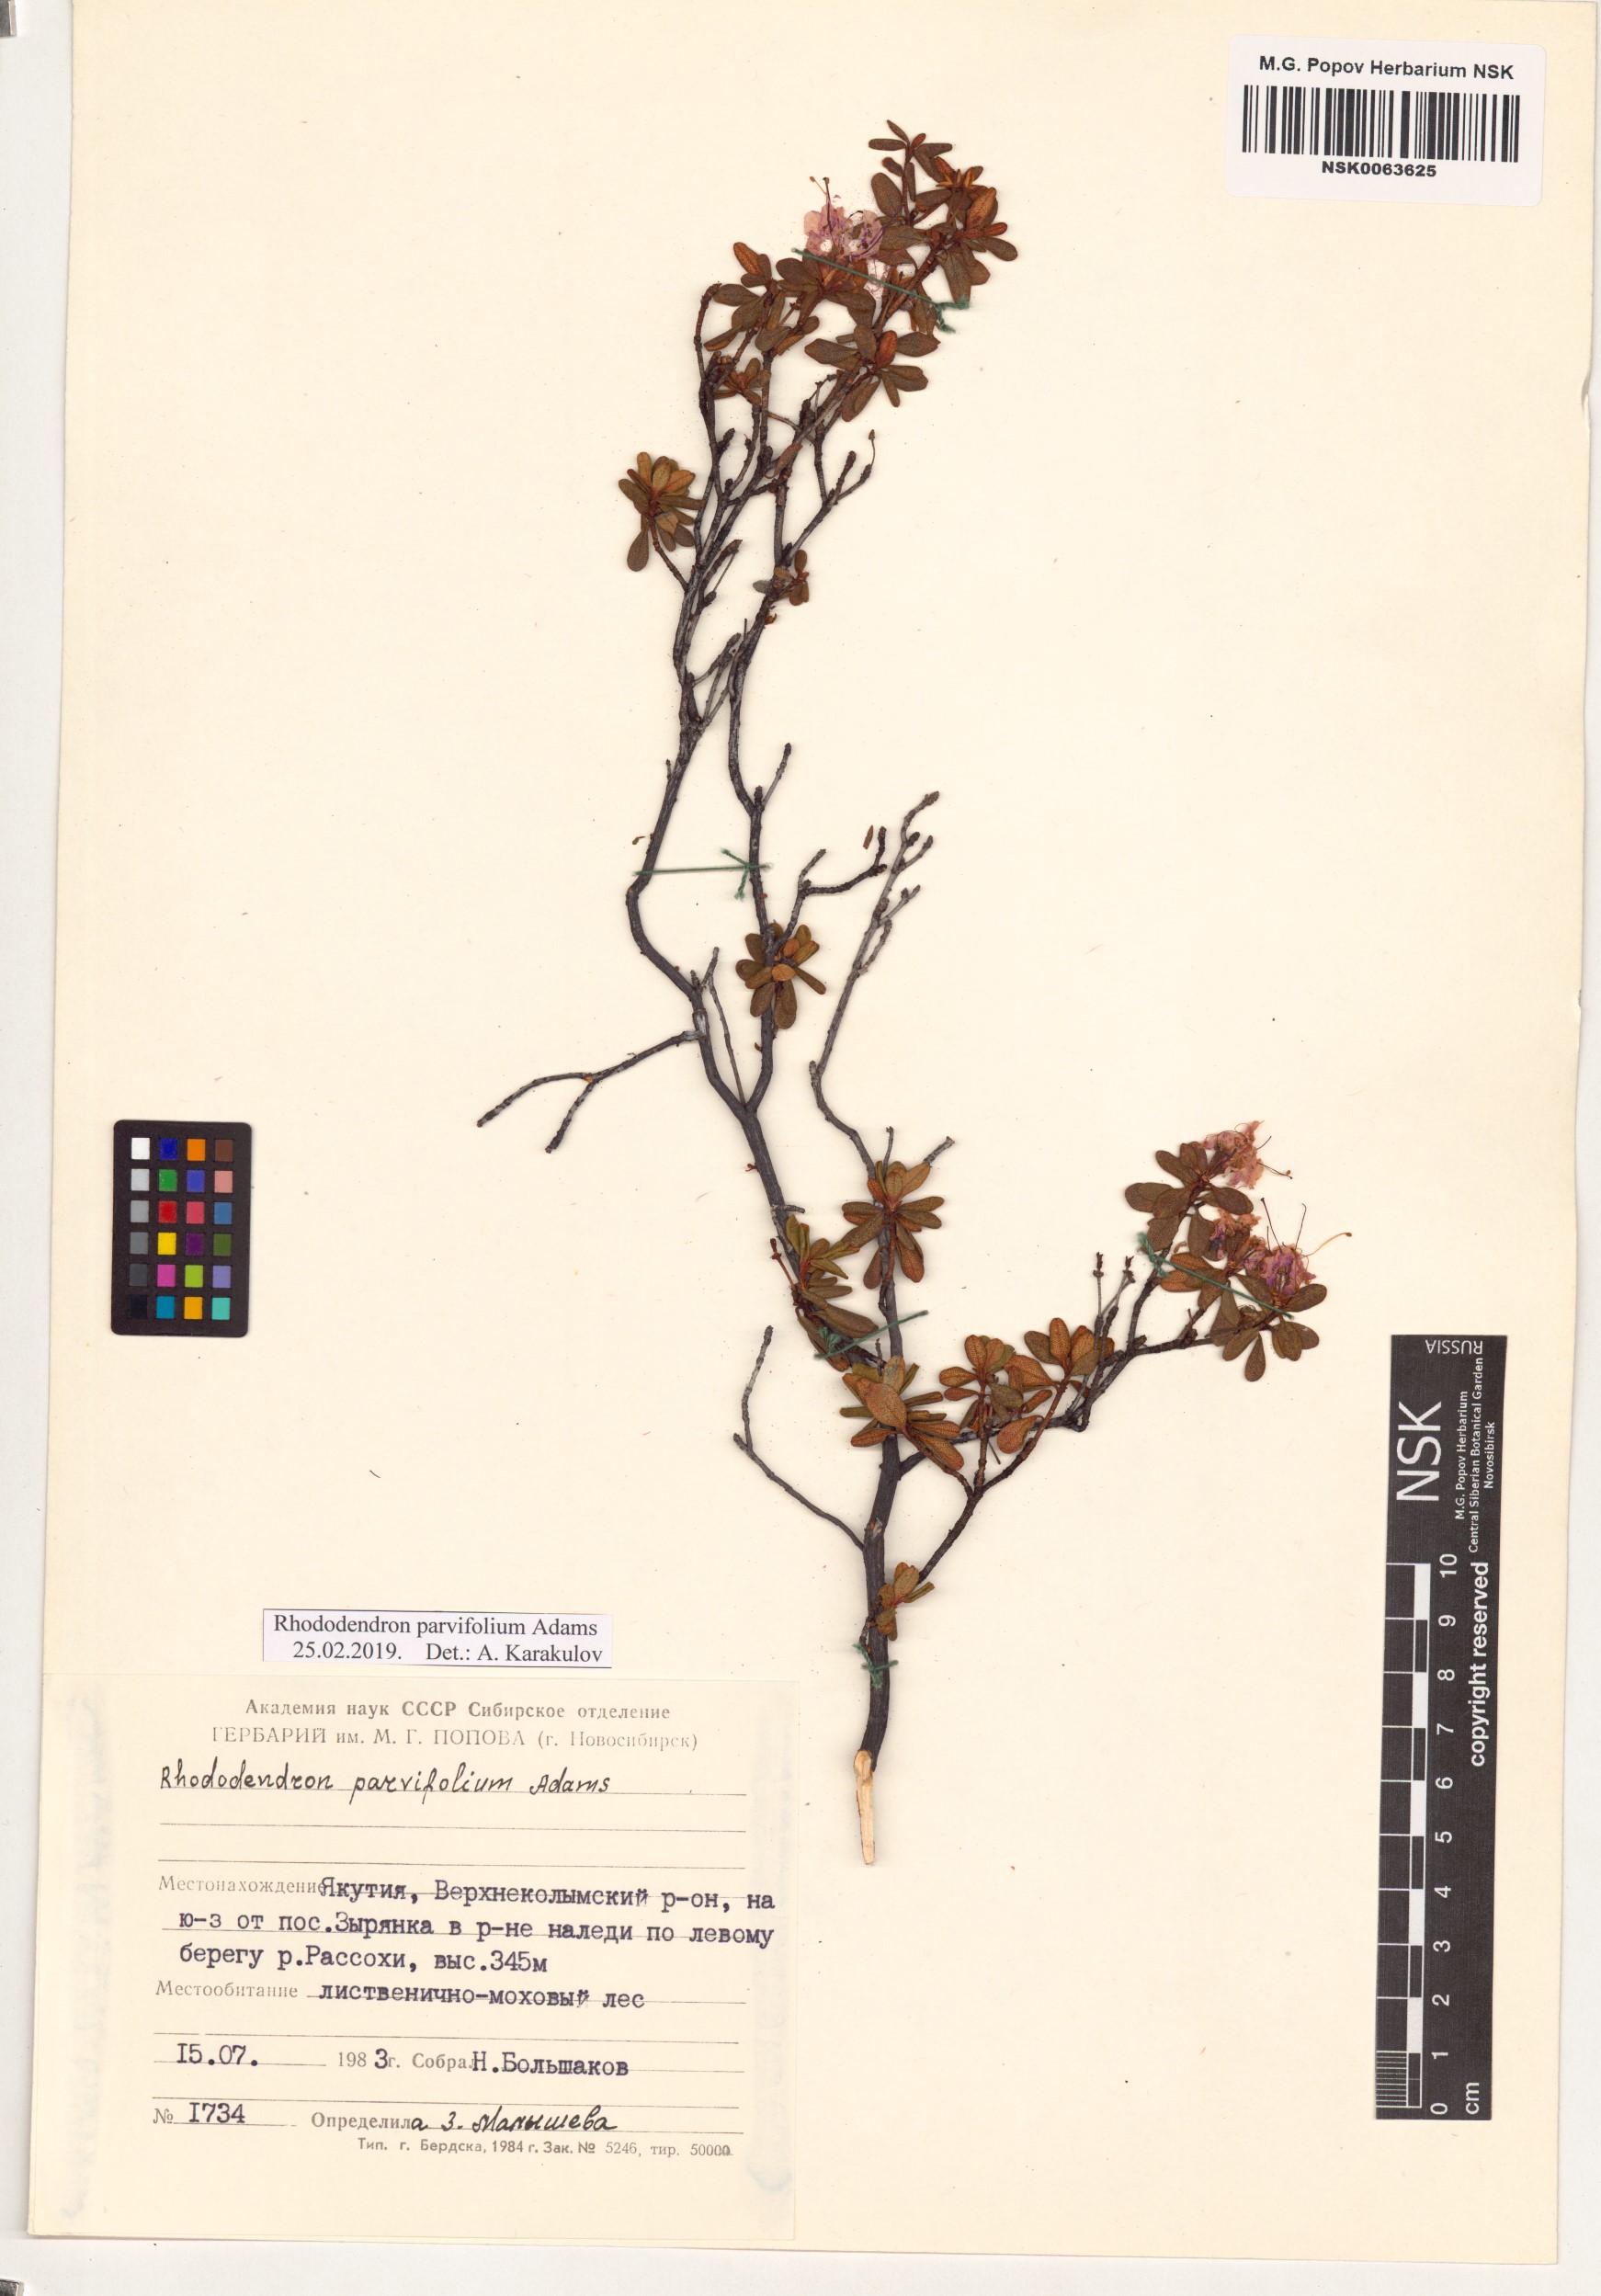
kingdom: Plantae
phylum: Tracheophyta
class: Magnoliopsida
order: Ericales
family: Ericaceae
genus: Rhododendron
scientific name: Rhododendron parvifolium
